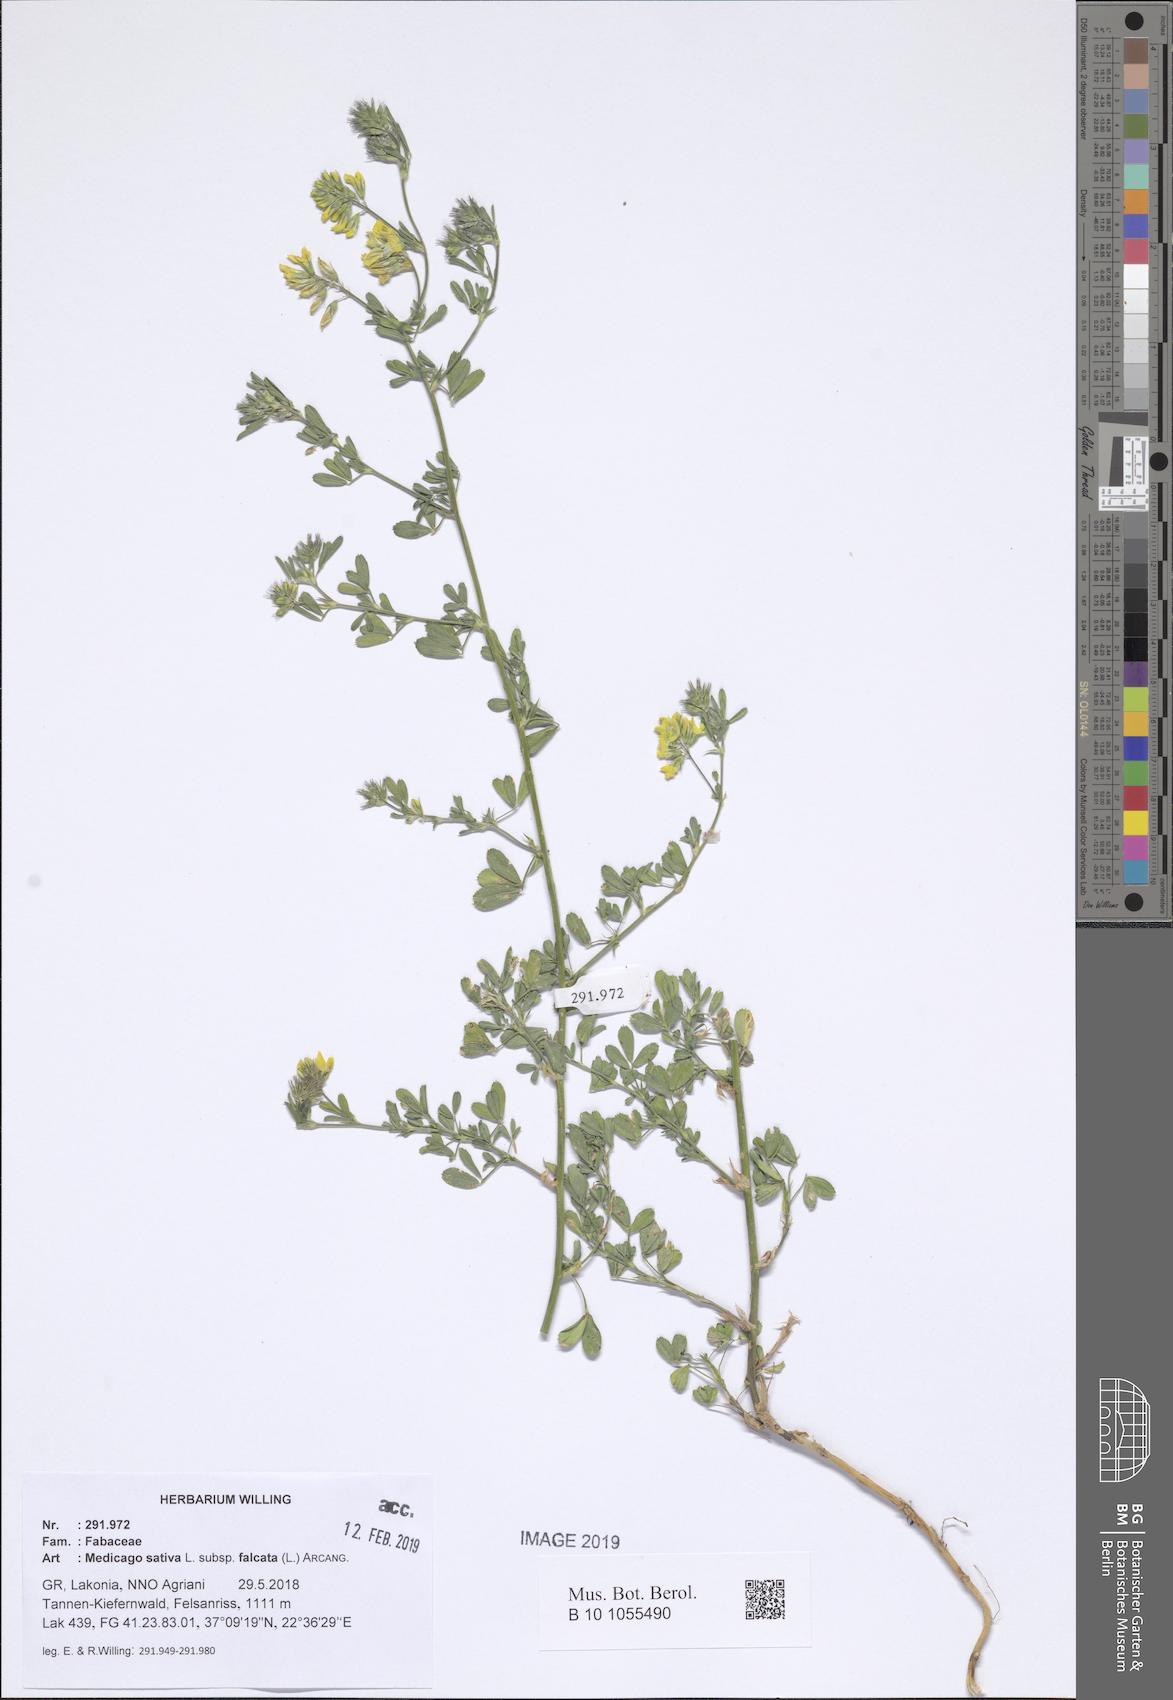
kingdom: Plantae
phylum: Tracheophyta
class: Magnoliopsida
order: Fabales
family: Fabaceae
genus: Medicago
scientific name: Medicago falcata
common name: Sickle medick
